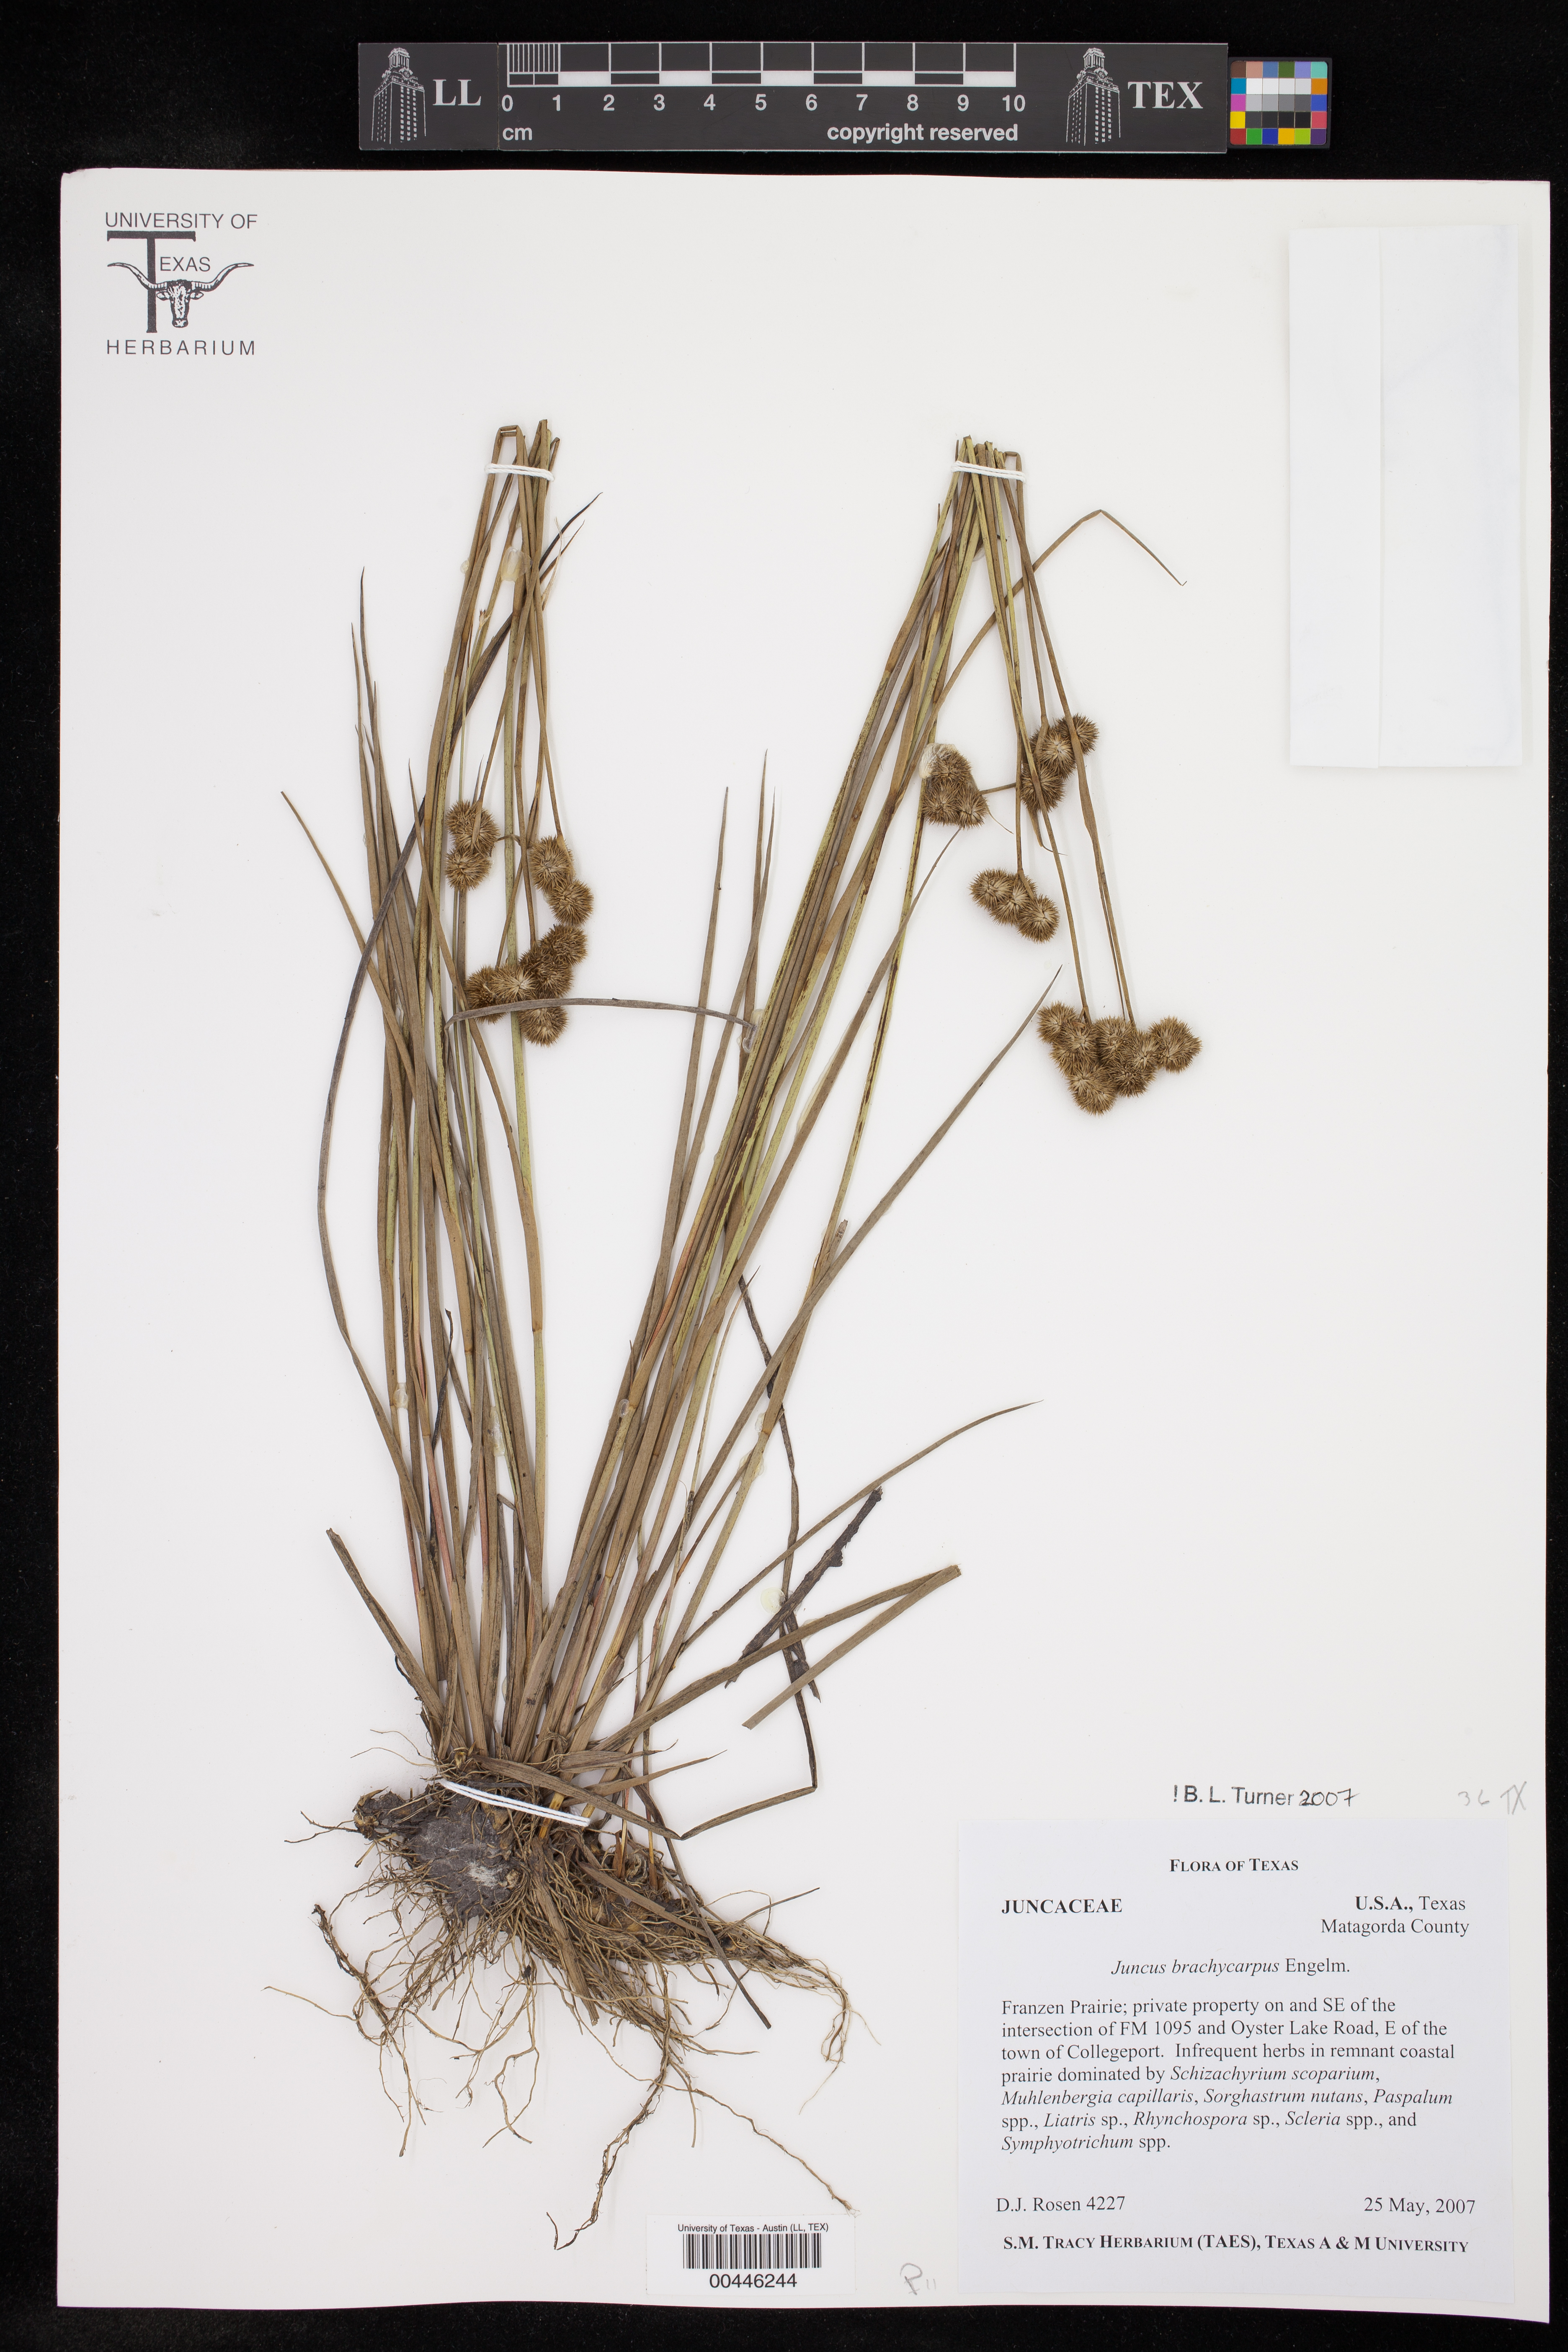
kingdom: Plantae
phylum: Tracheophyta
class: Liliopsida
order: Poales
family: Juncaceae
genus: Juncus
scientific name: Juncus brachycarpus
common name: Shore rush
